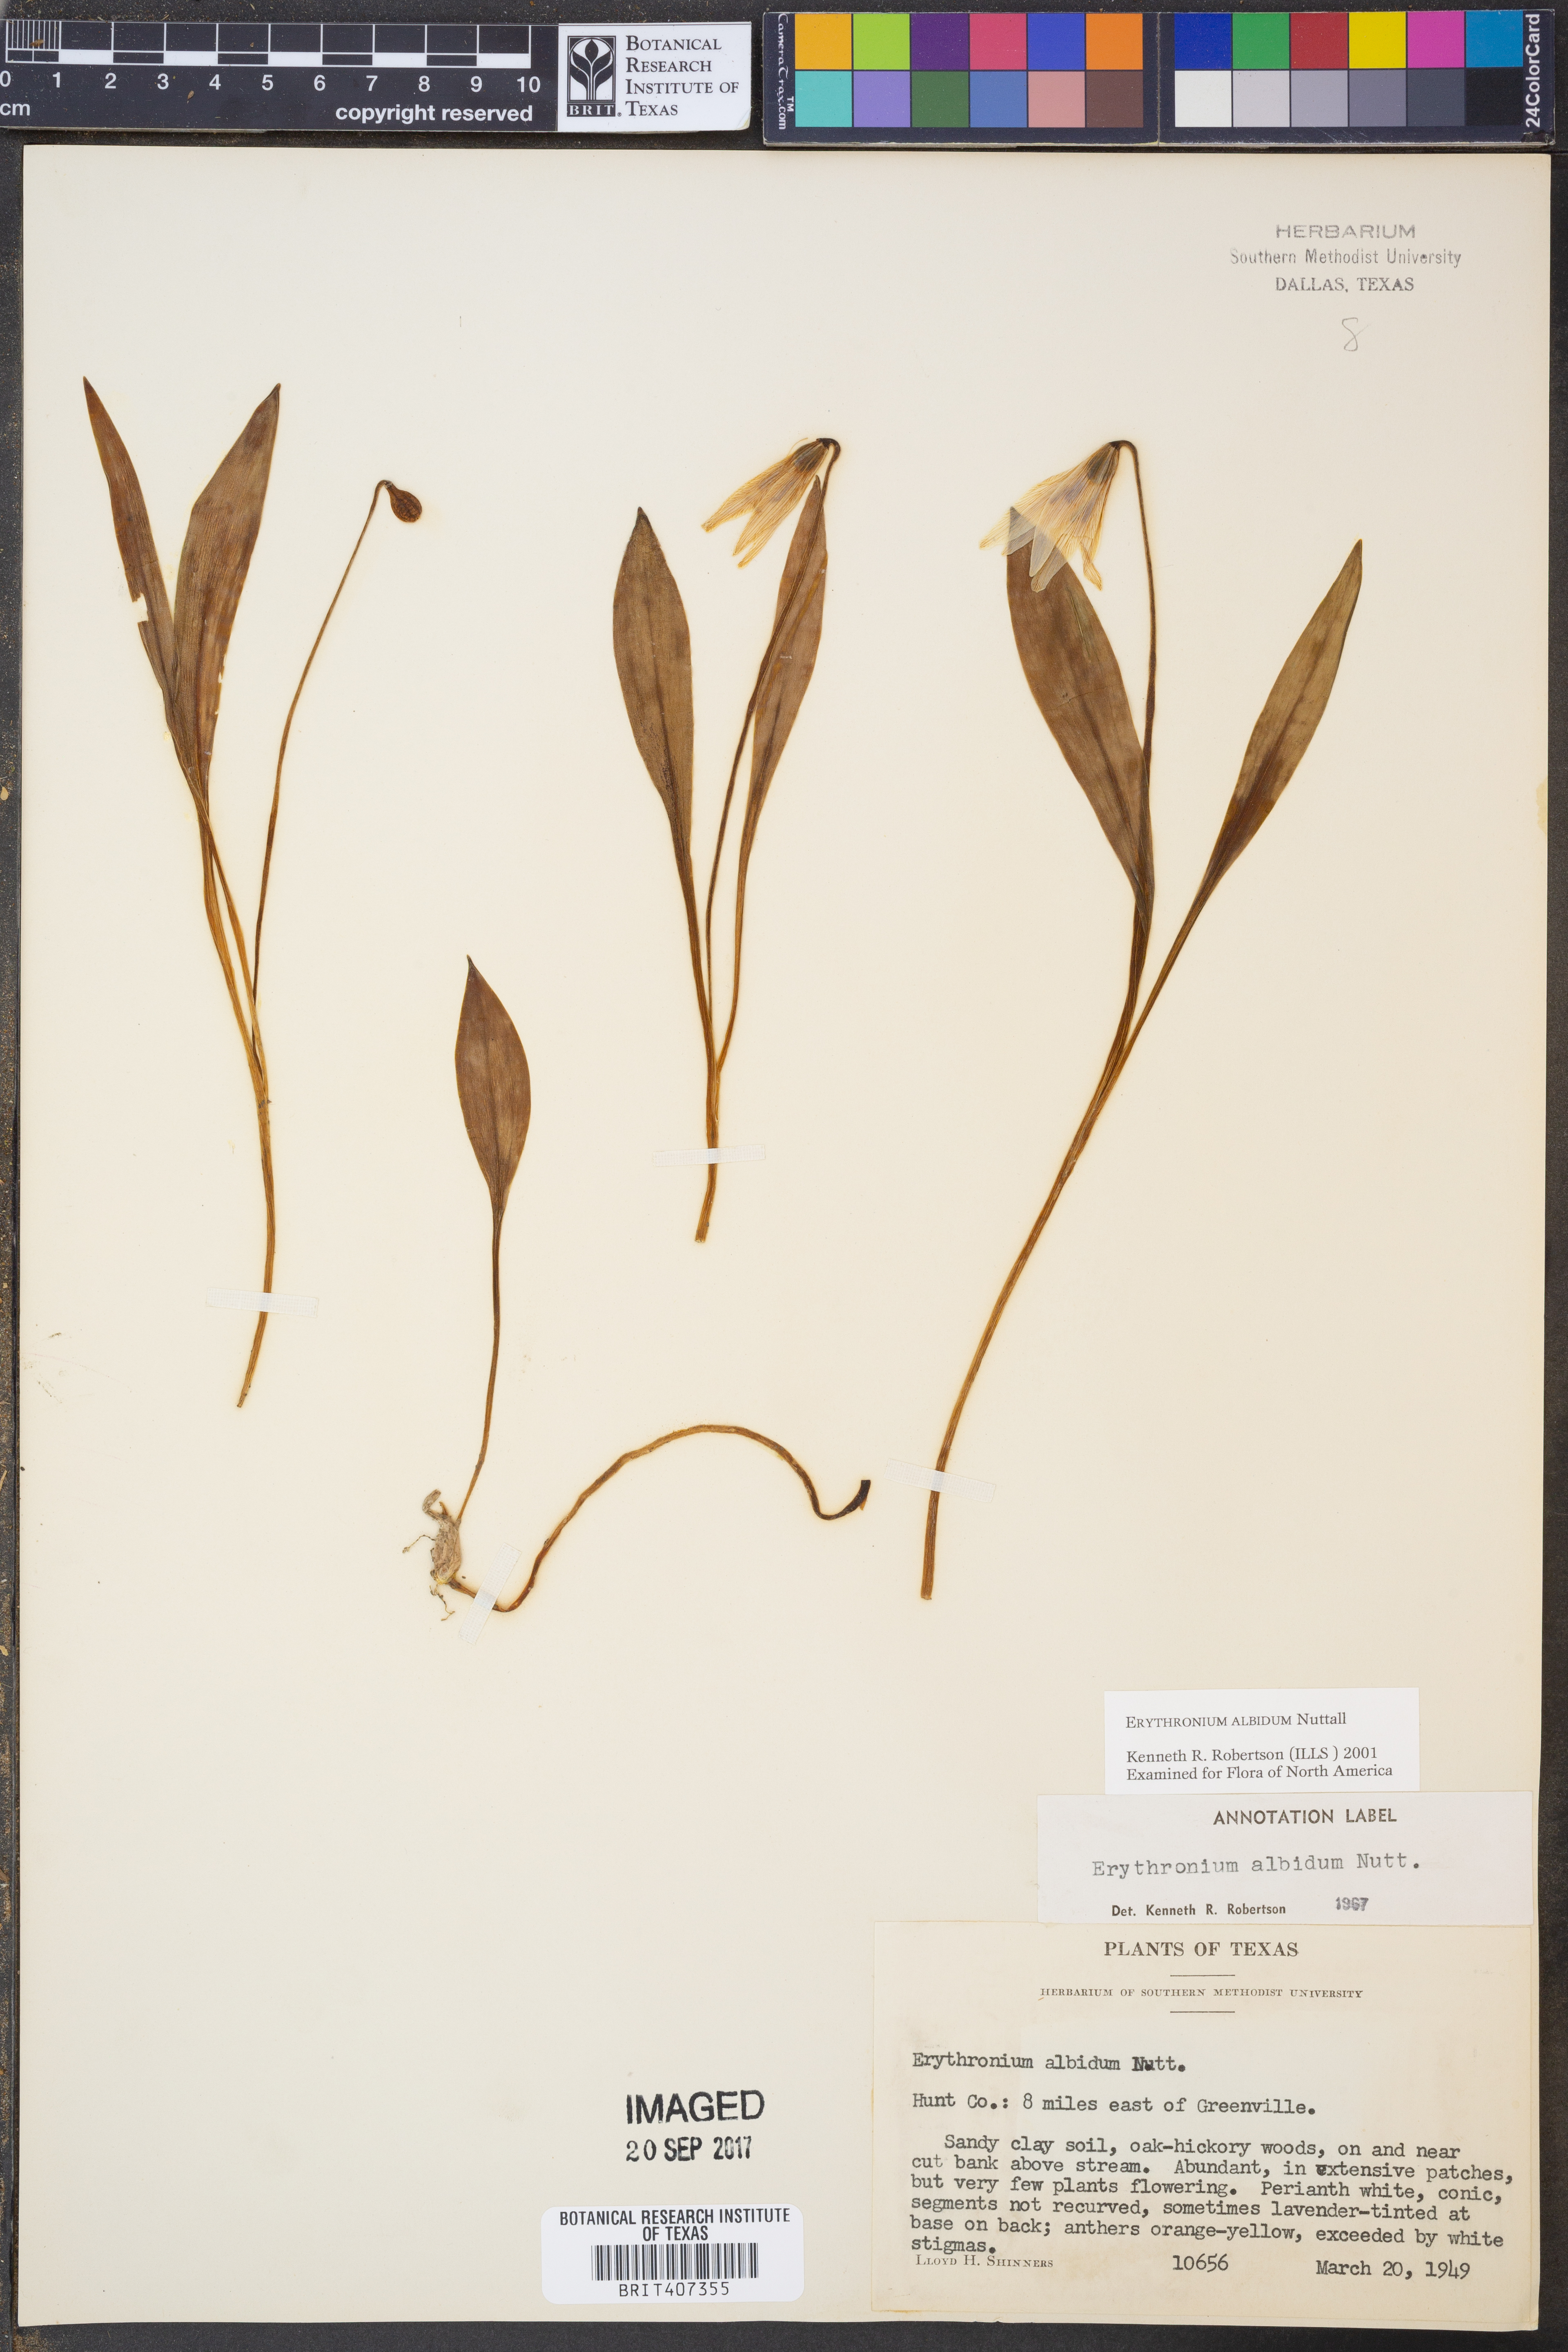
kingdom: Plantae
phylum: Tracheophyta
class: Liliopsida
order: Liliales
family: Liliaceae
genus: Erythronium
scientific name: Erythronium albidum
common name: White trout-lily
